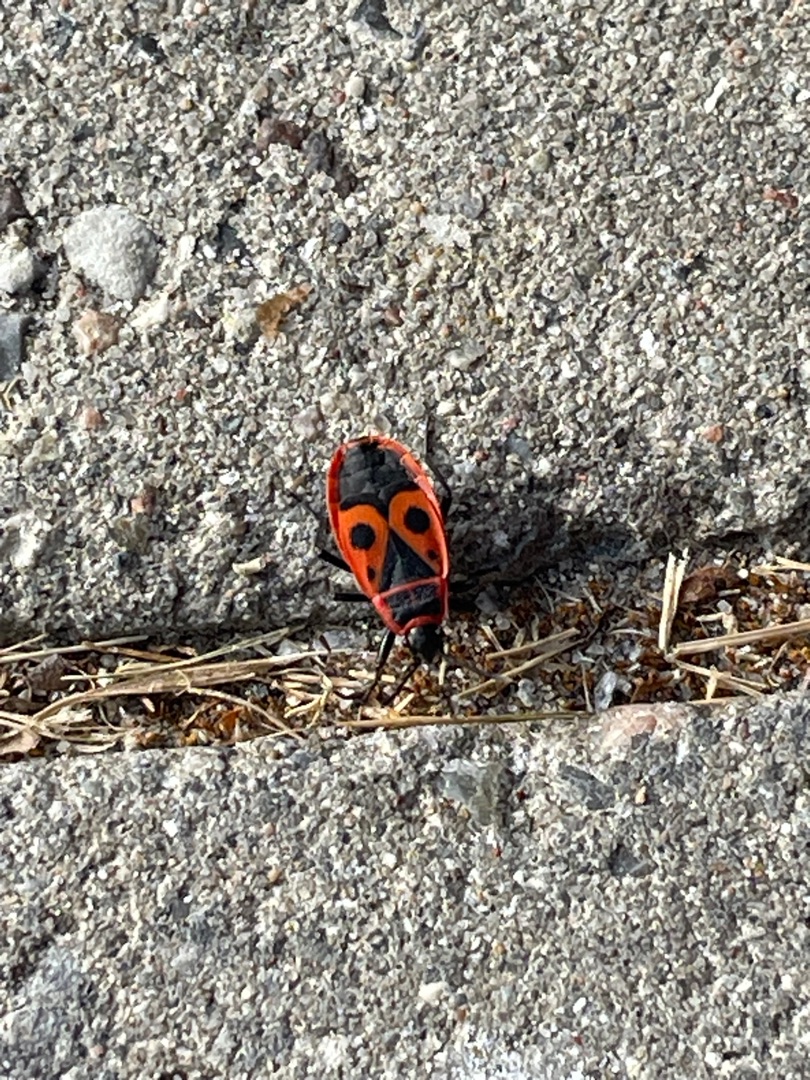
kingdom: Animalia
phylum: Arthropoda
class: Insecta
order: Hemiptera
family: Pyrrhocoridae
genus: Pyrrhocoris
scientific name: Pyrrhocoris apterus
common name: Ildtæge
